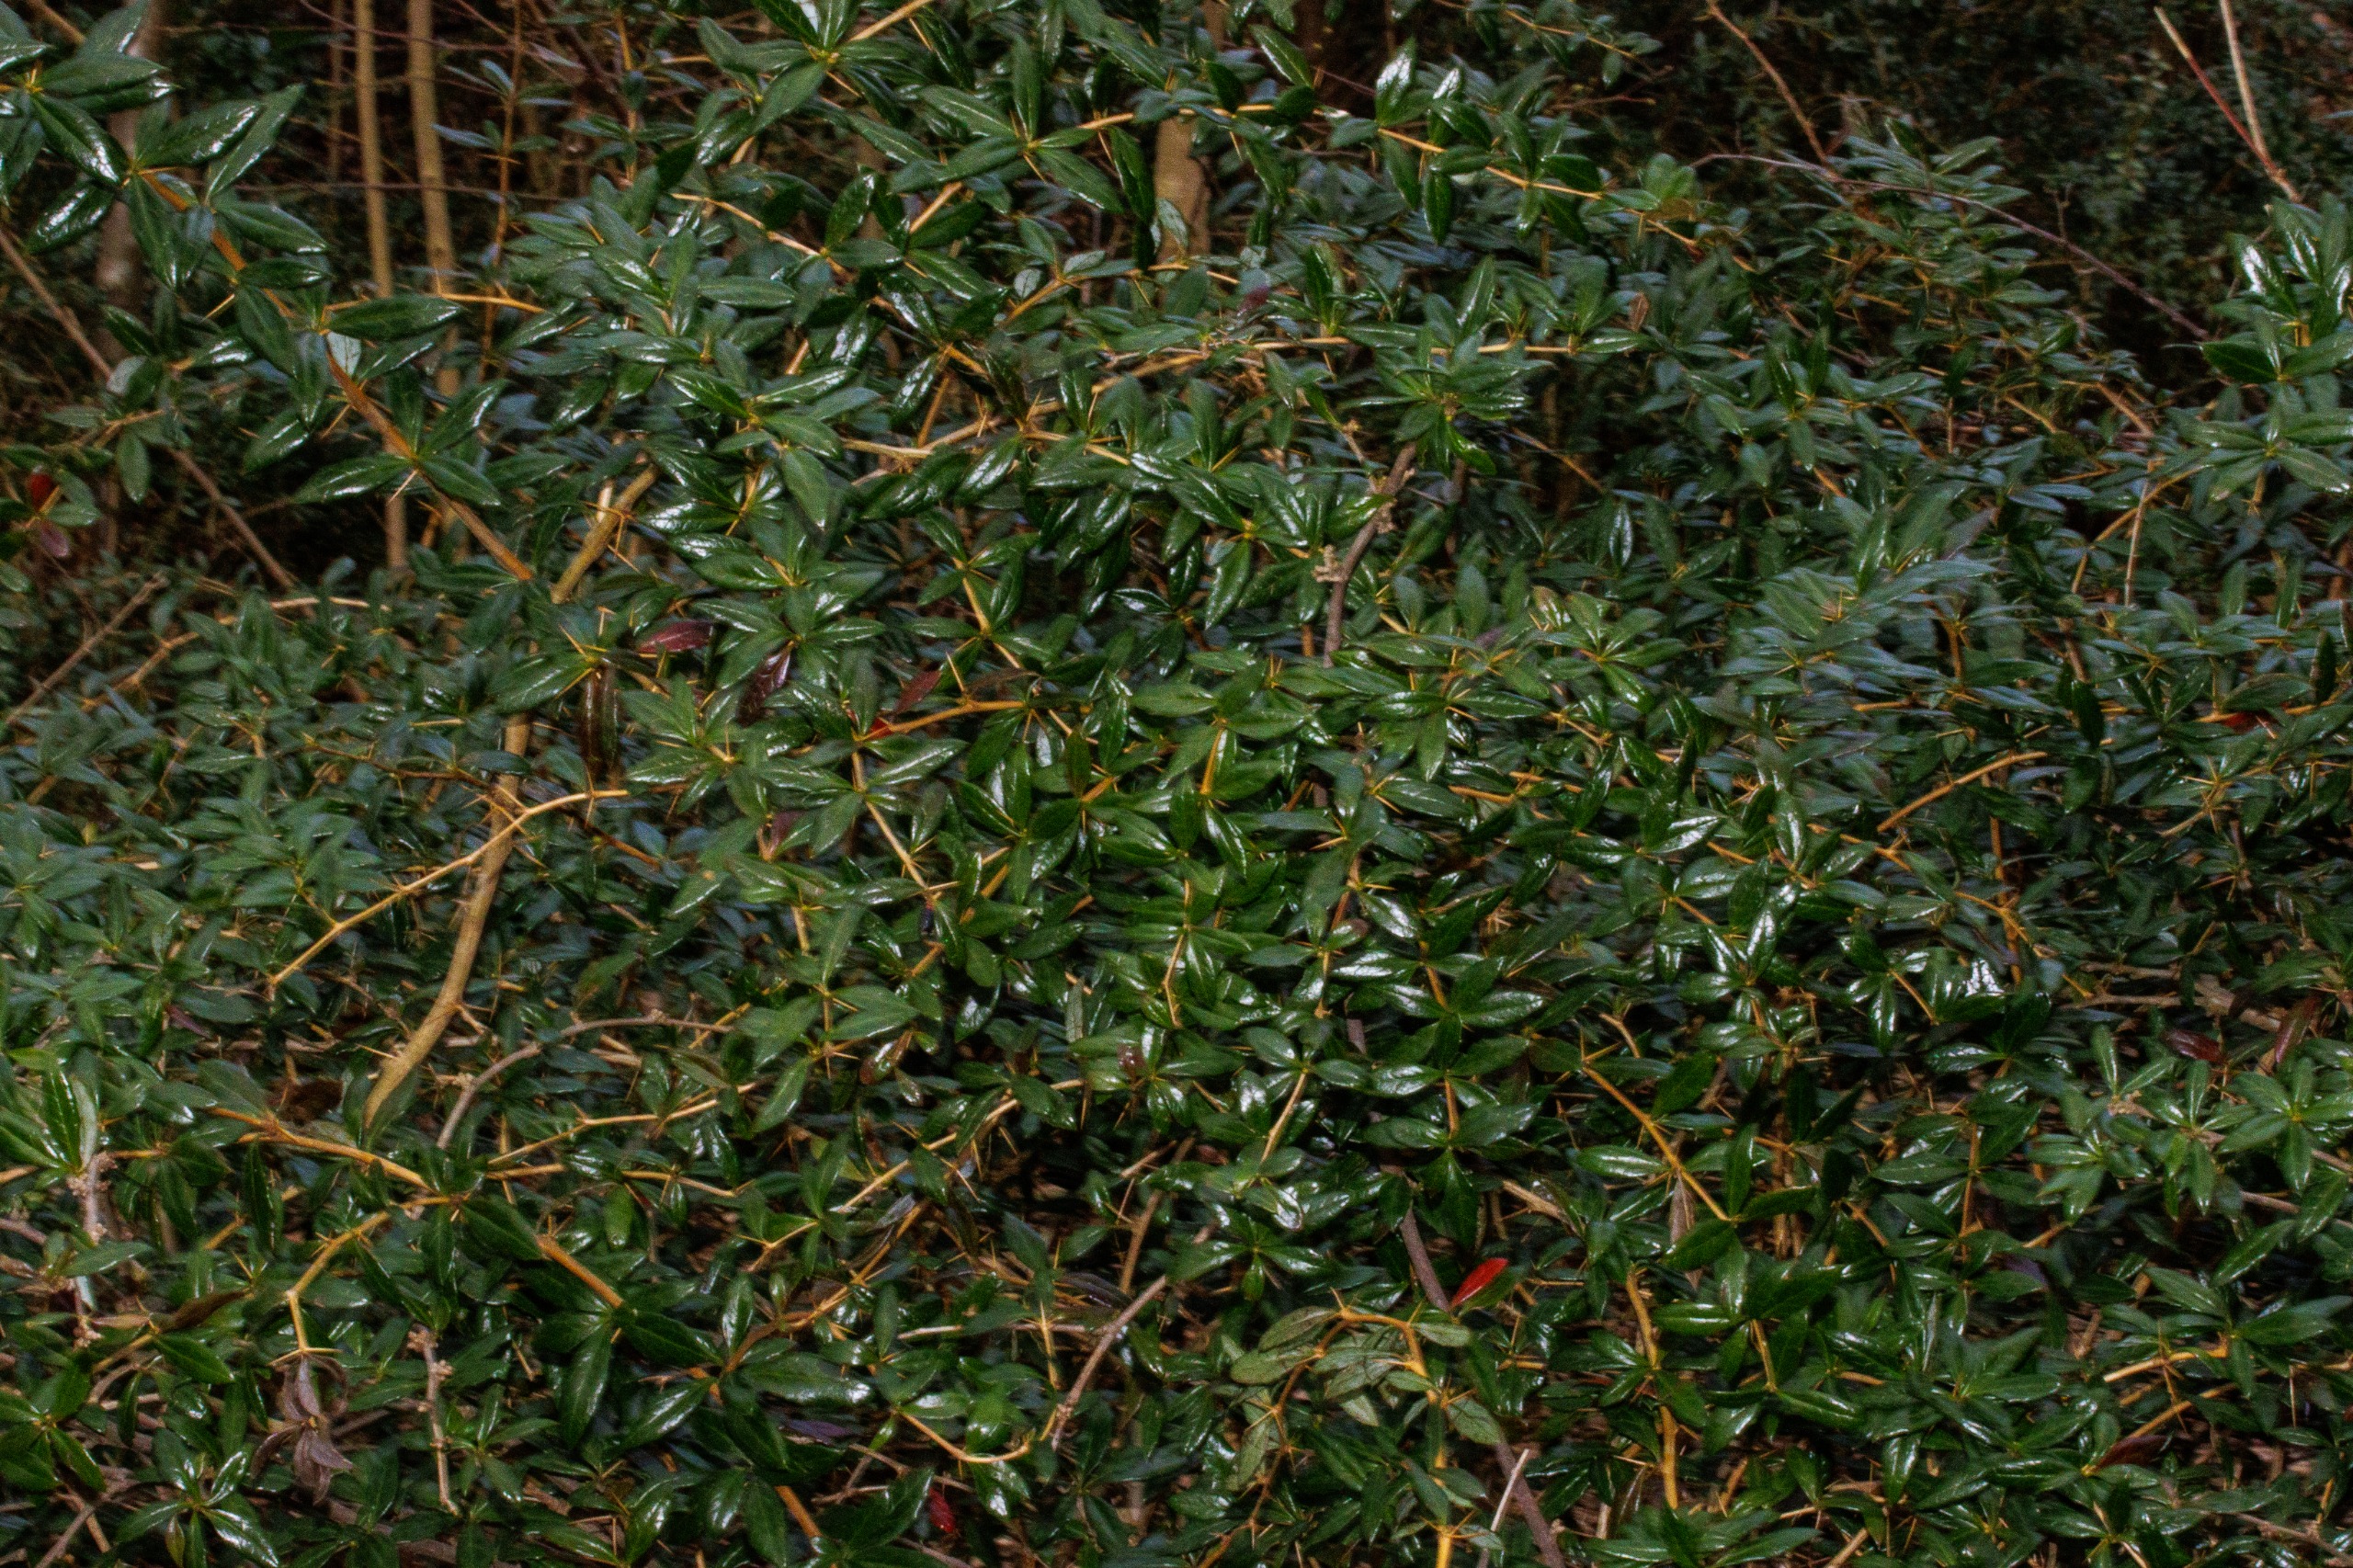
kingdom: Plantae
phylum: Tracheophyta
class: Magnoliopsida
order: Ranunculales
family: Berberidaceae
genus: Berberis
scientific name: Berberis julianae
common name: Julianes berberis
